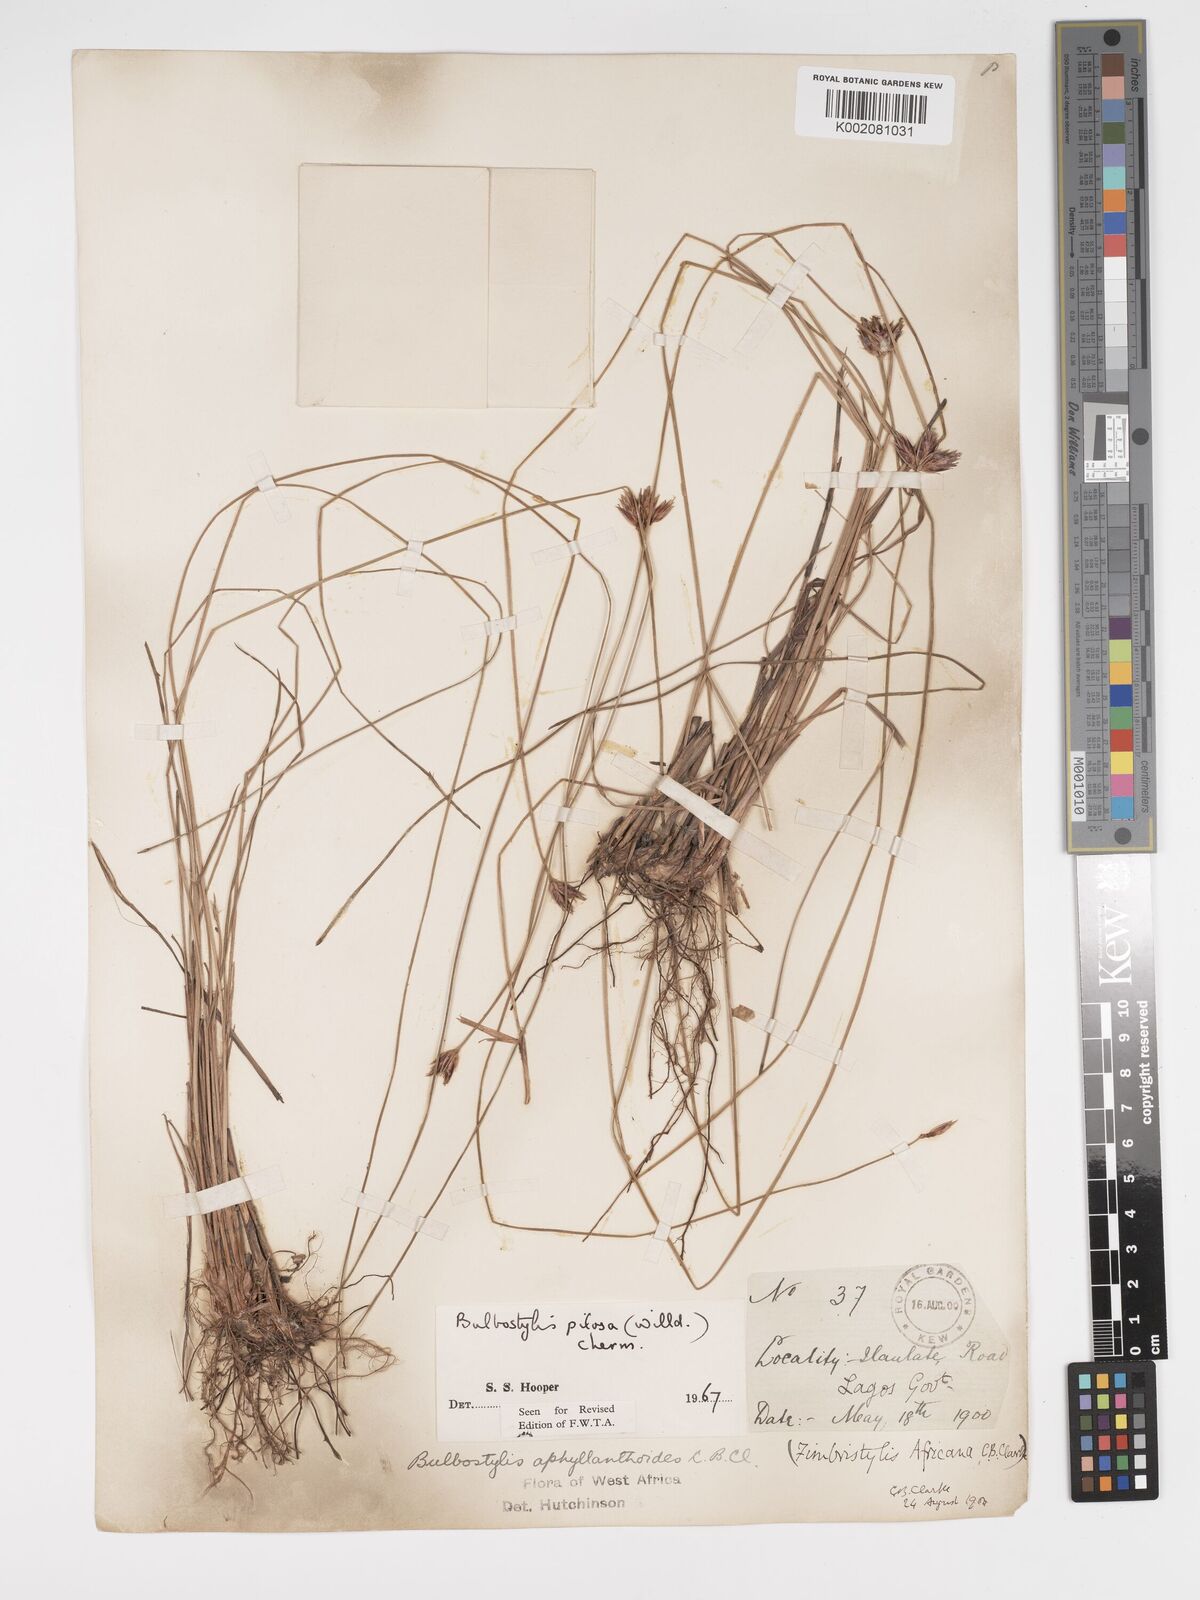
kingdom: Plantae
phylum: Tracheophyta
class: Liliopsida
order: Poales
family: Cyperaceae
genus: Bulbostylis
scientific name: Bulbostylis pilosa
